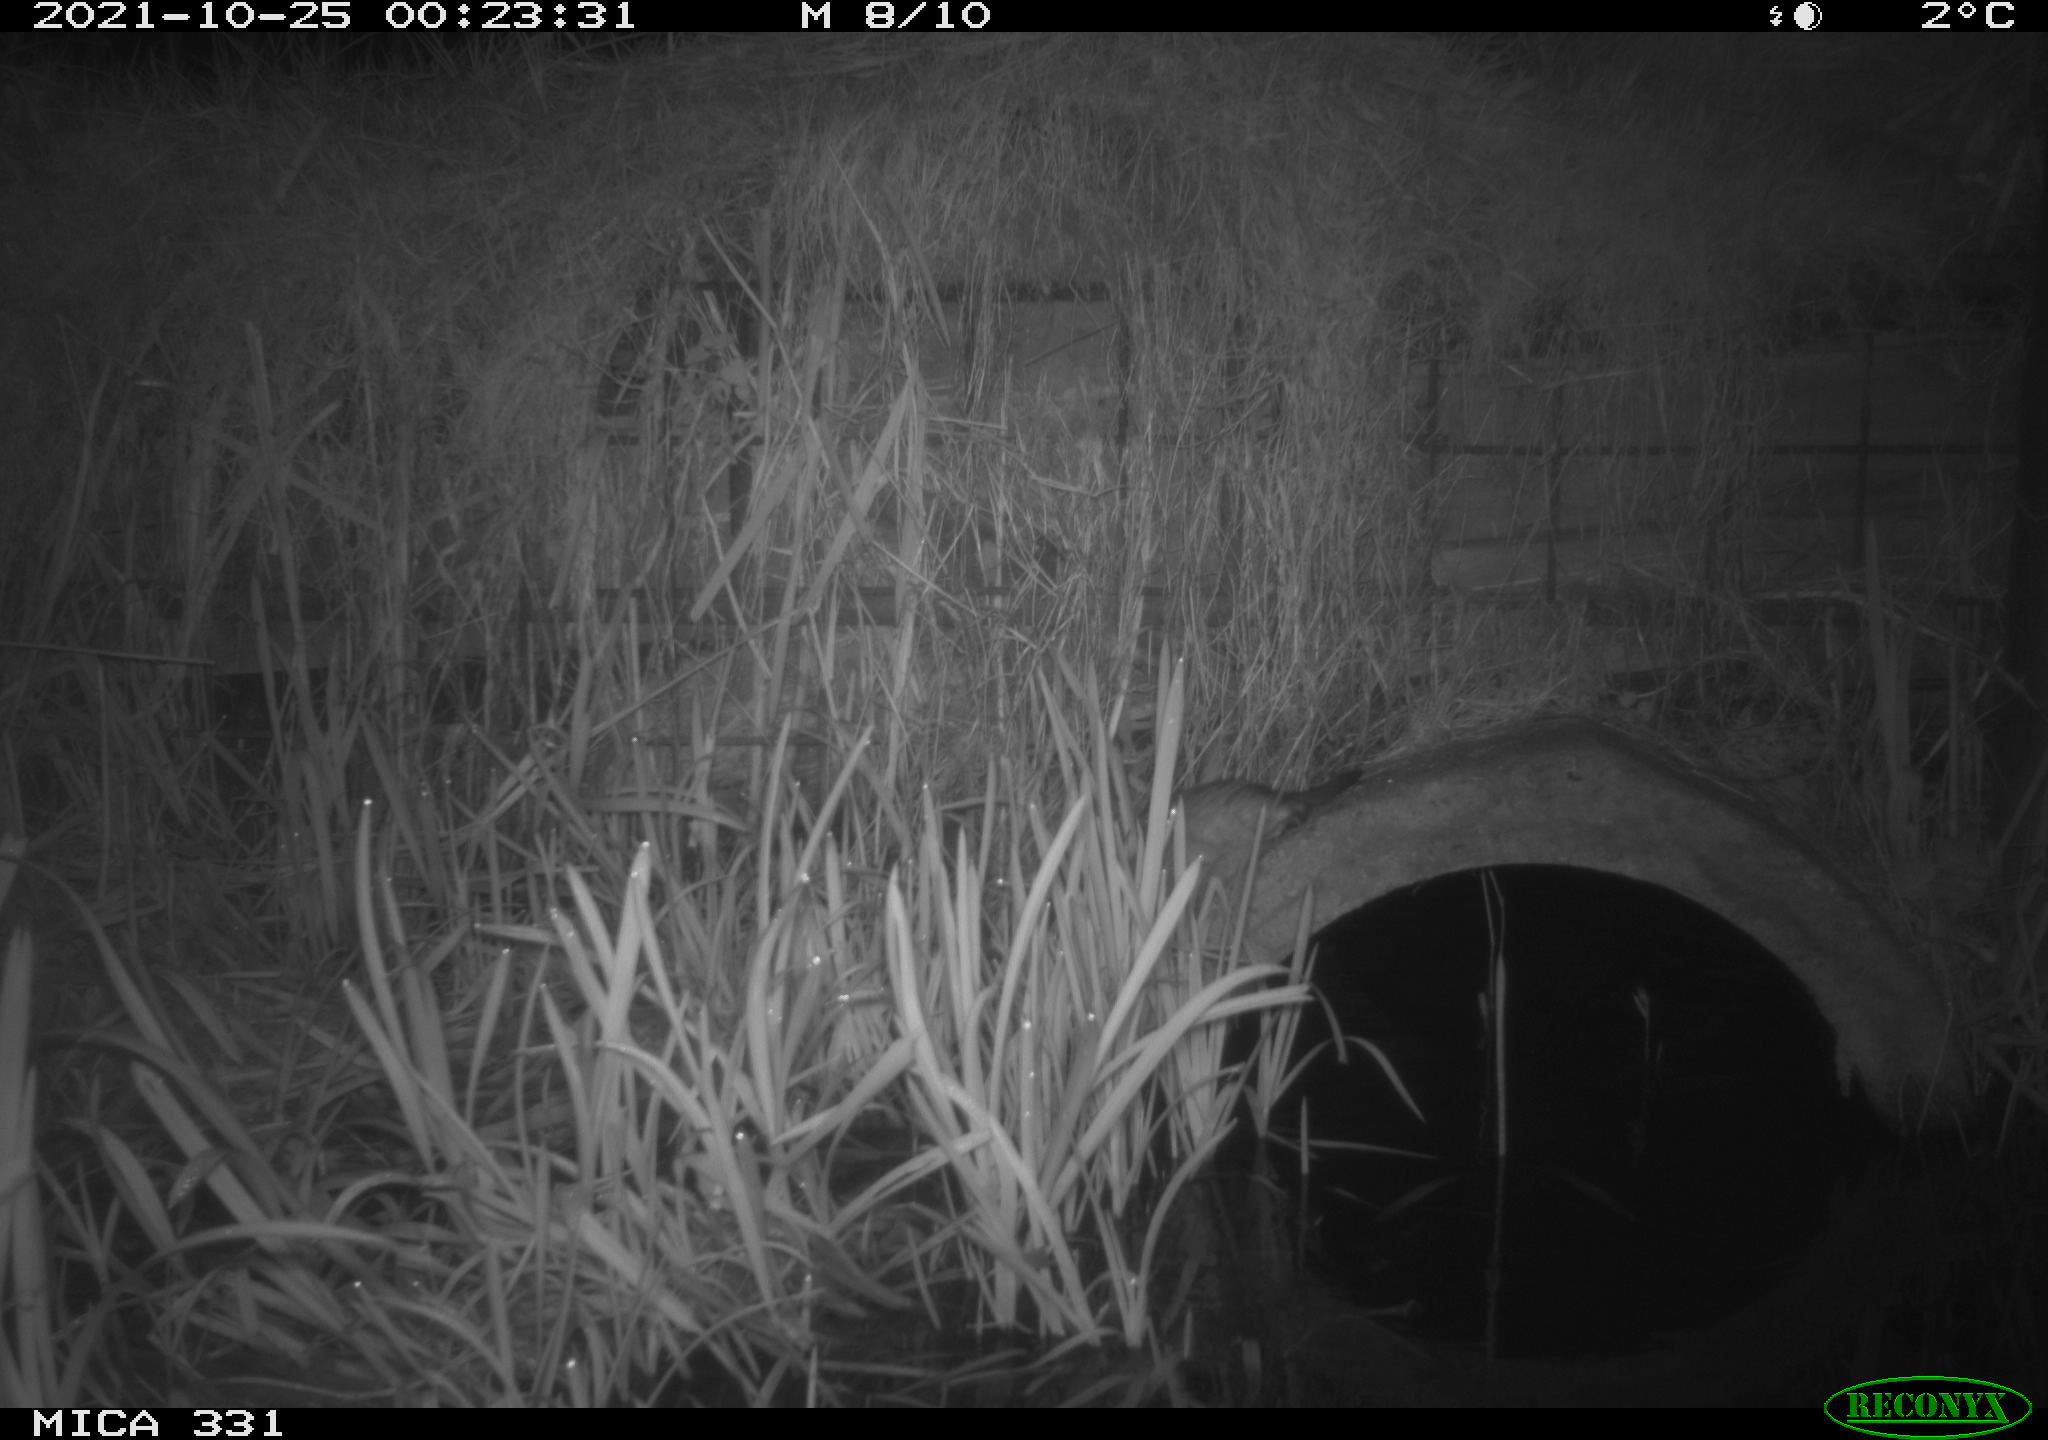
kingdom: Animalia
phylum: Chordata
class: Mammalia
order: Rodentia
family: Cricetidae
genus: Ondatra
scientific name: Ondatra zibethicus
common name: Muskrat
